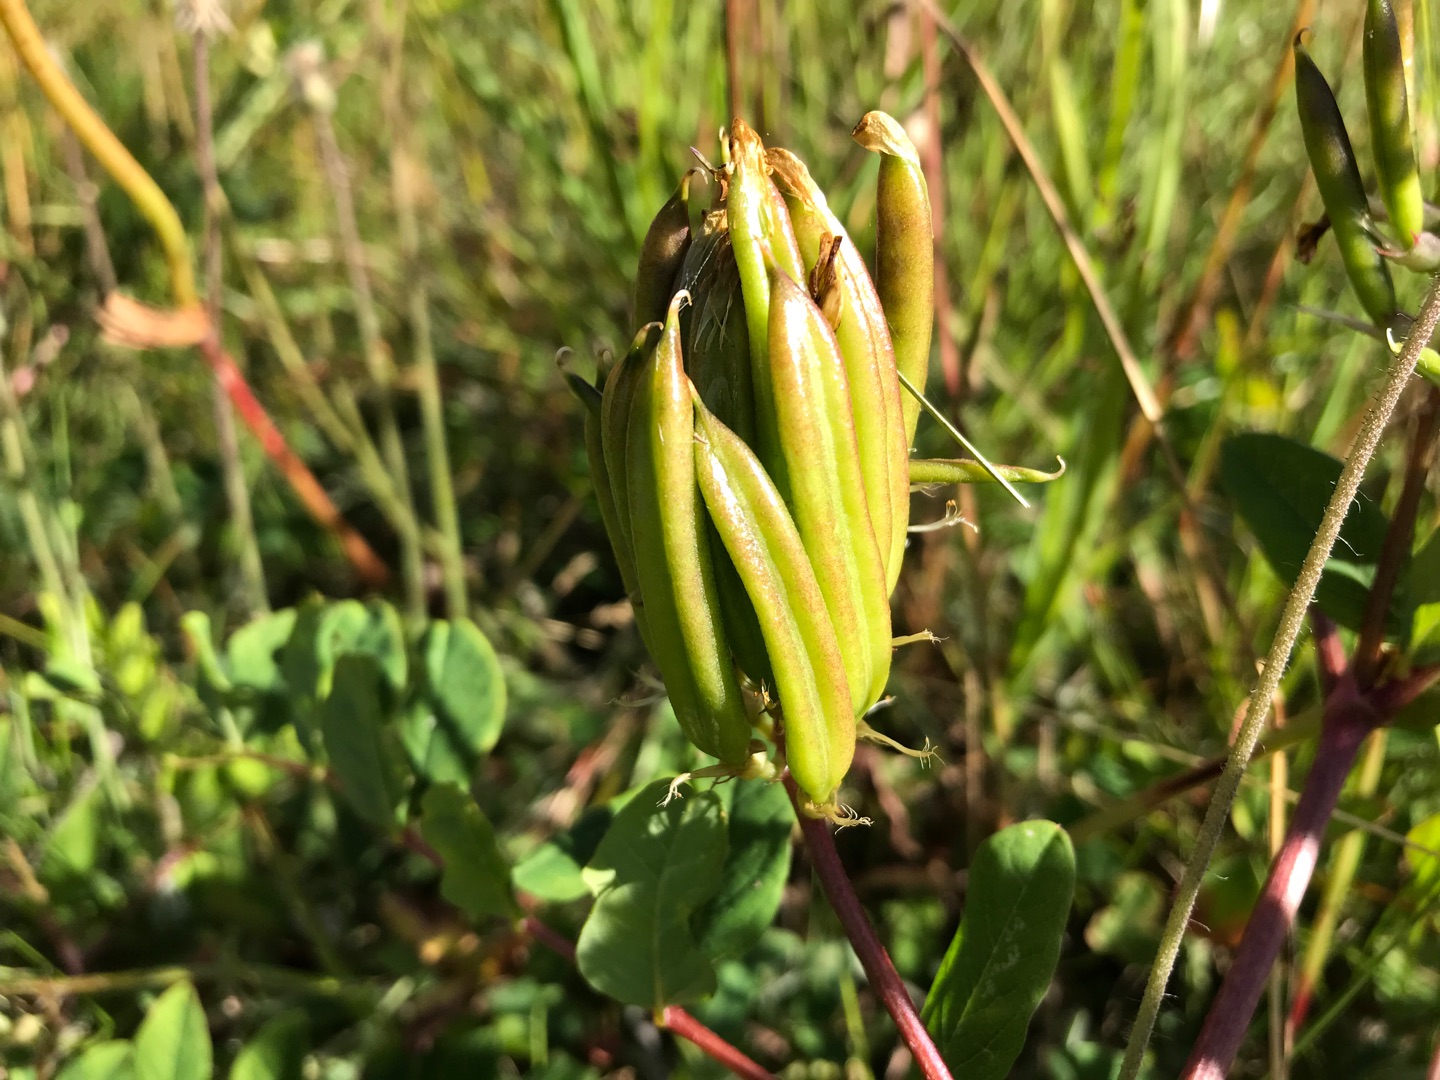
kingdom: Plantae
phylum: Tracheophyta
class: Magnoliopsida
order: Fabales
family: Fabaceae
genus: Astragalus
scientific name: Astragalus glycyphyllos
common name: Sød astragel
